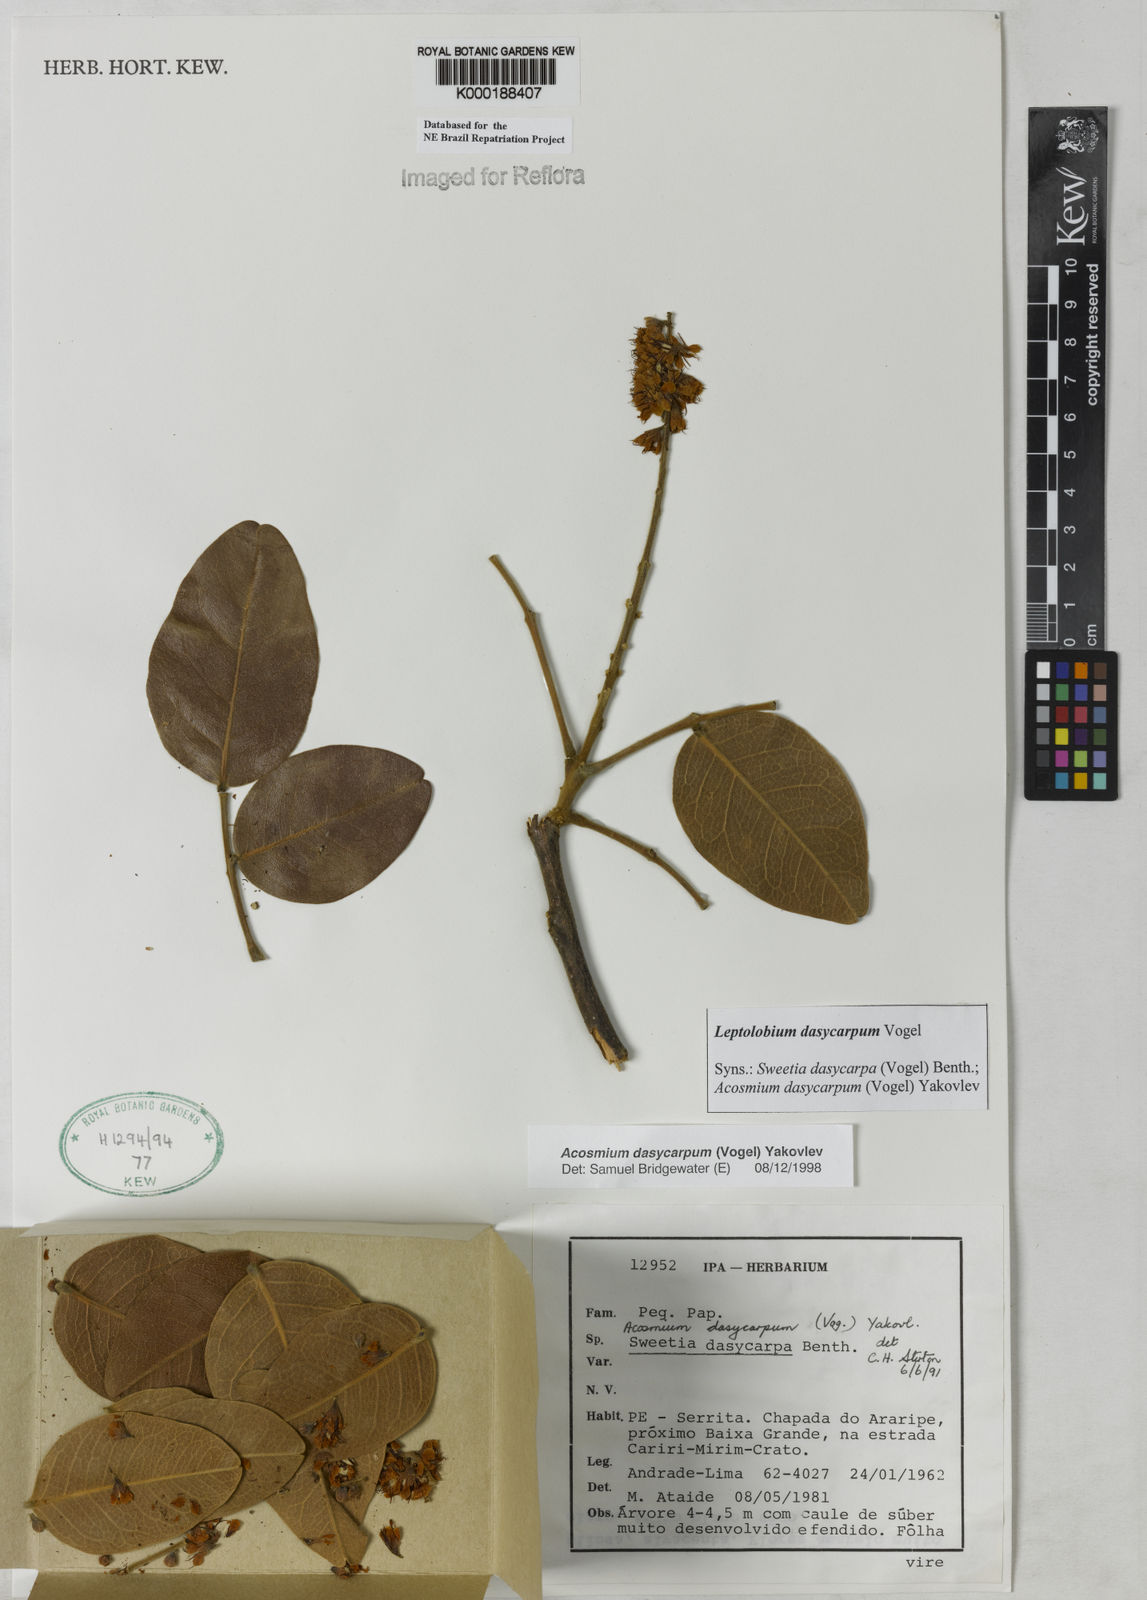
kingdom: Plantae
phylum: Tracheophyta
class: Magnoliopsida
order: Fabales
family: Fabaceae
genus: Leptolobium
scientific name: Leptolobium dasycarpum
